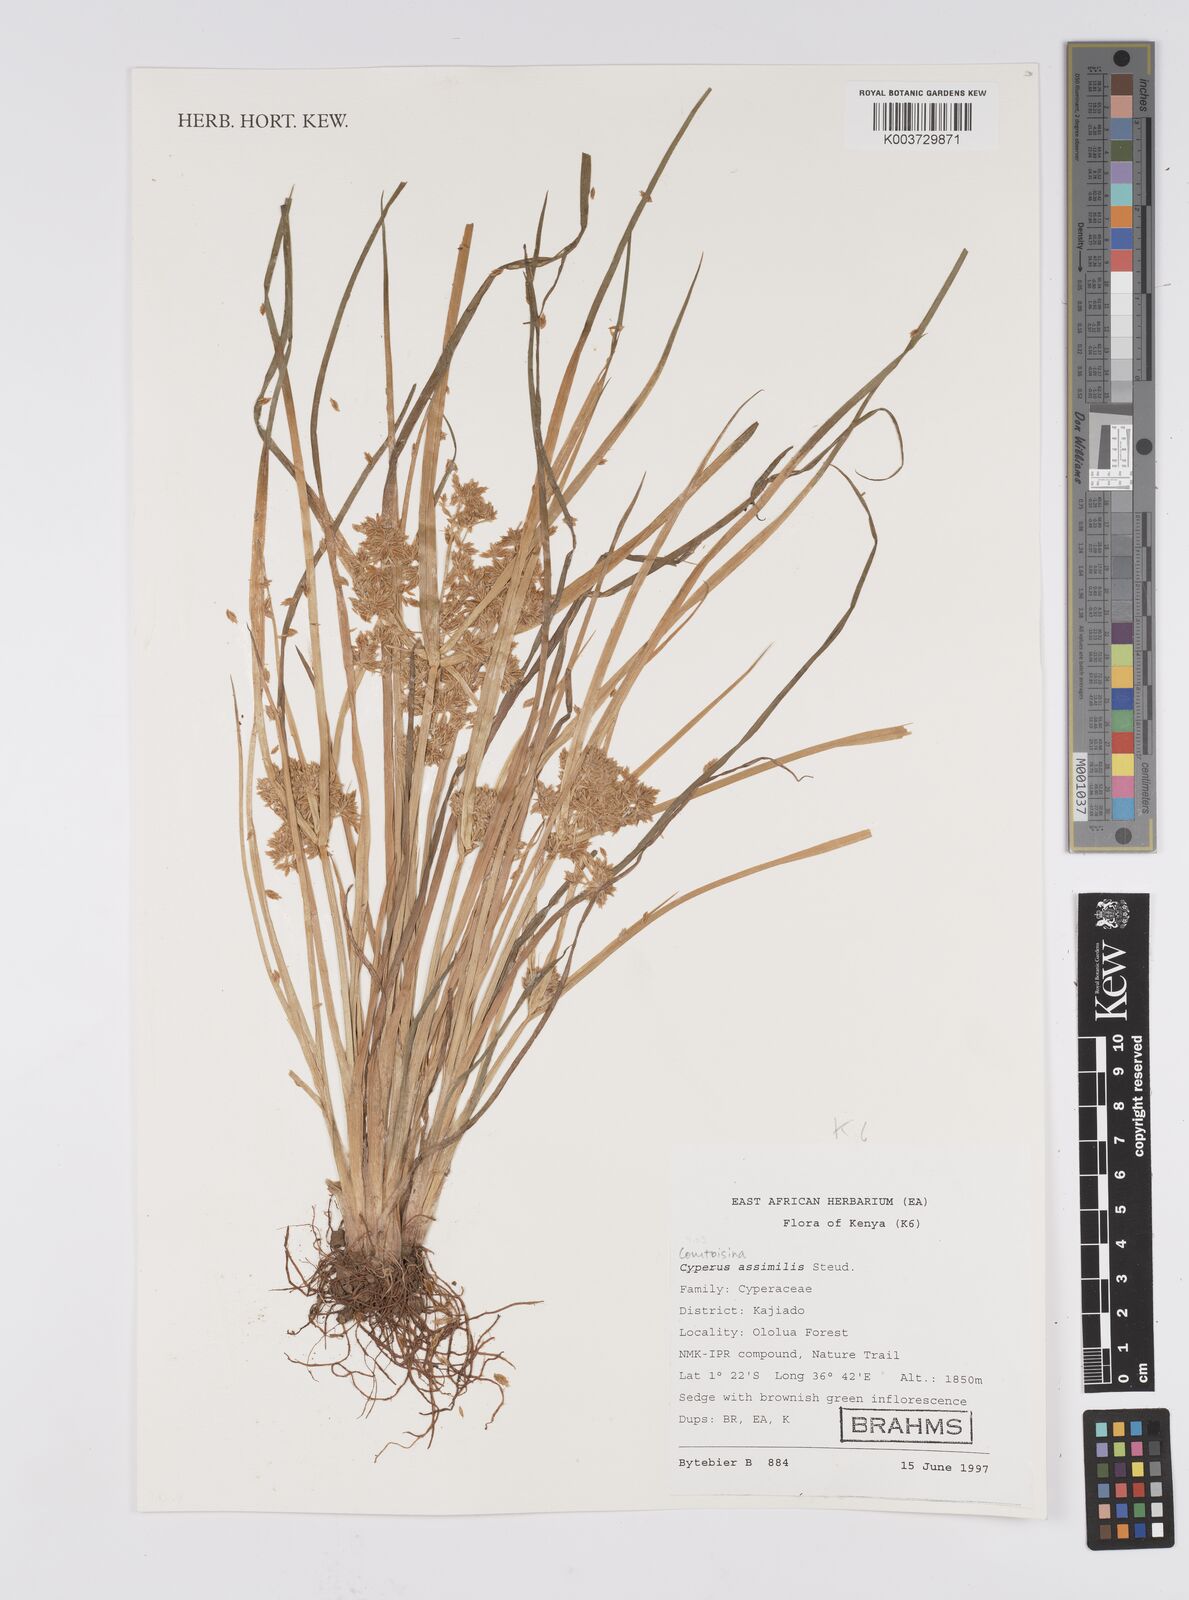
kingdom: Plantae
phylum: Tracheophyta
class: Liliopsida
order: Poales
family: Cyperaceae
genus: Cyperus
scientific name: Cyperus assimilis
